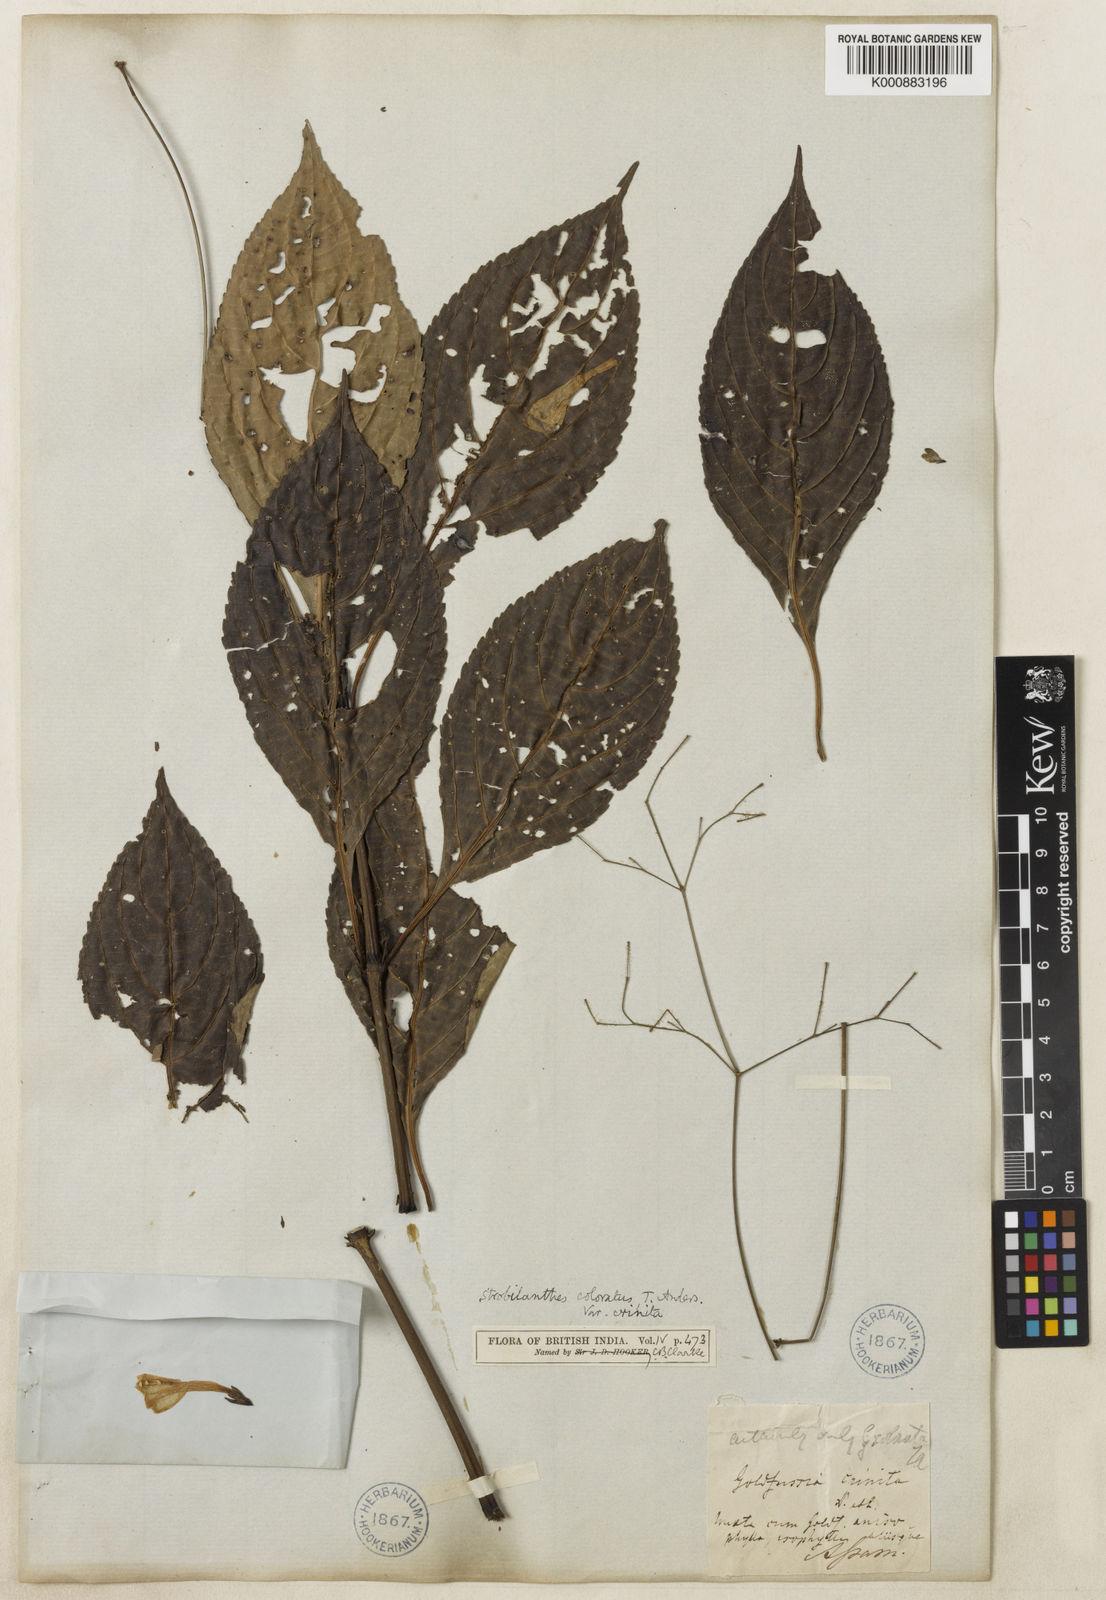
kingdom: Plantae
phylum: Tracheophyta
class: Magnoliopsida
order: Lamiales
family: Acanthaceae
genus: Strobilanthes
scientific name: Strobilanthes
